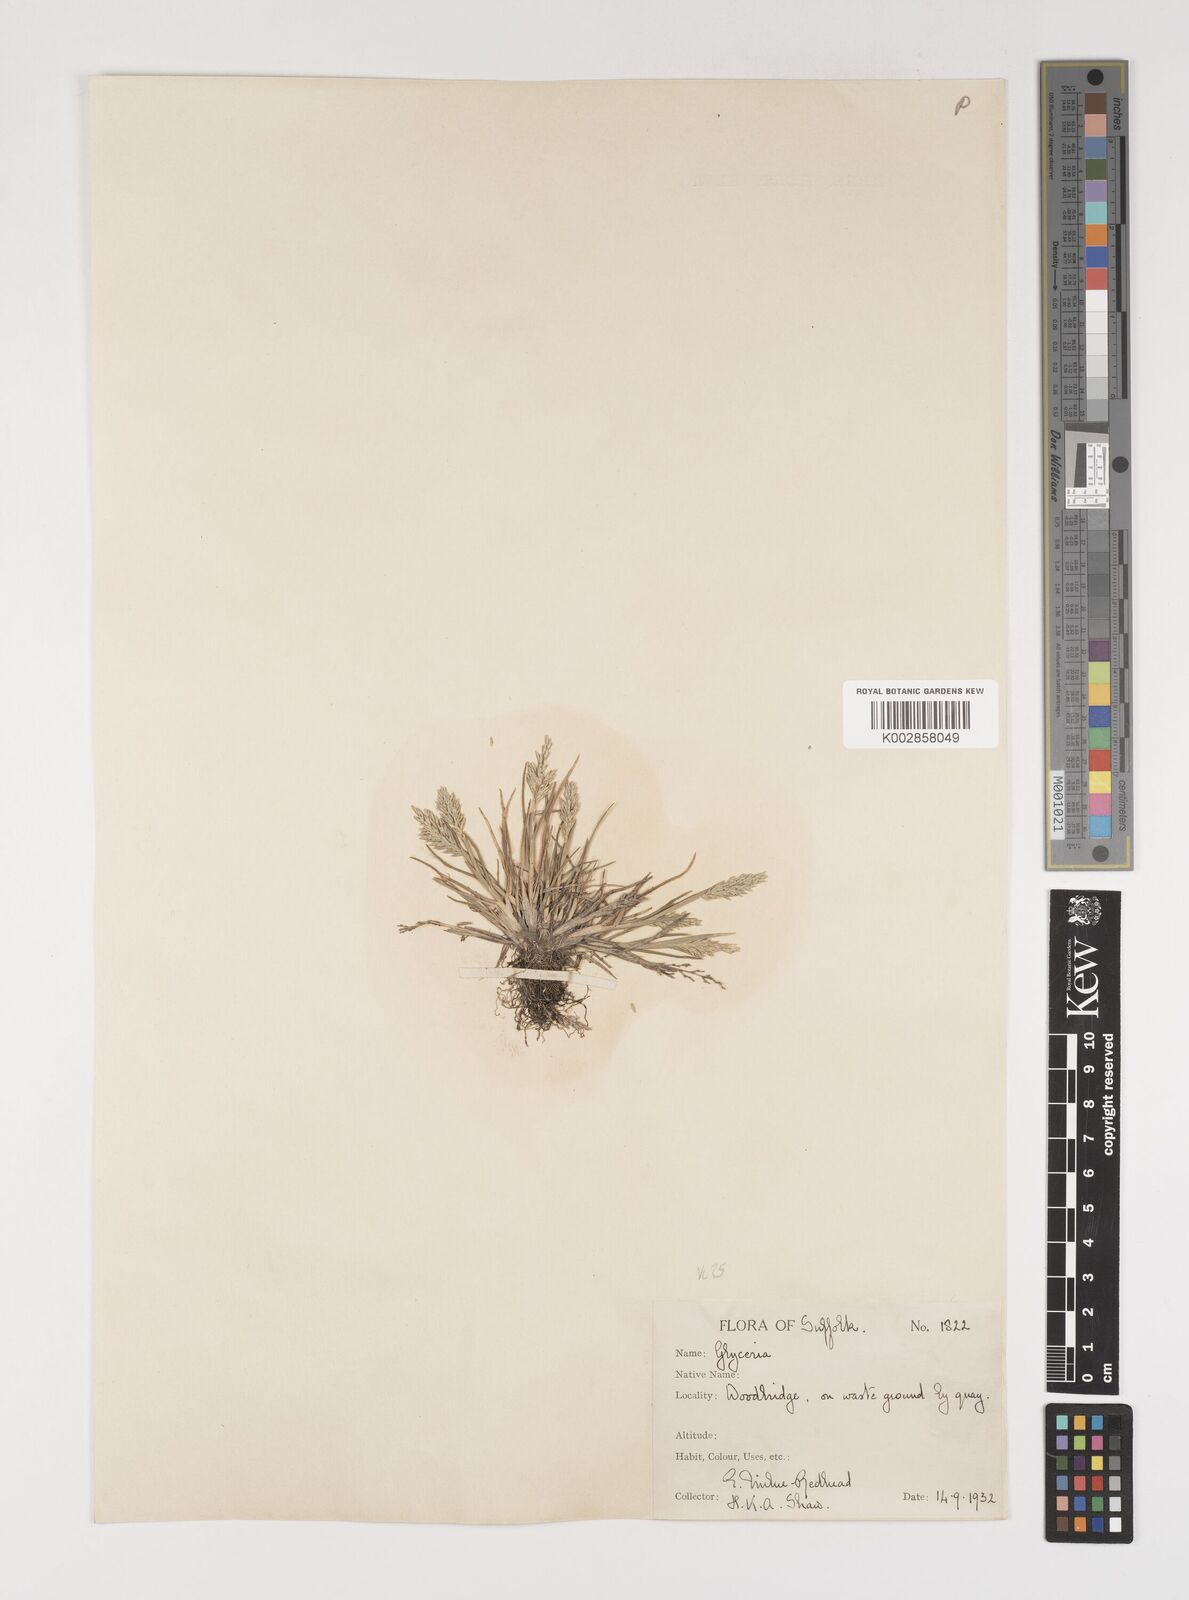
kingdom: Plantae
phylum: Tracheophyta
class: Liliopsida
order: Poales
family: Poaceae
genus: Puccinellia
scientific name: Puccinellia rupestris
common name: Stiff saltmarsh-grass
